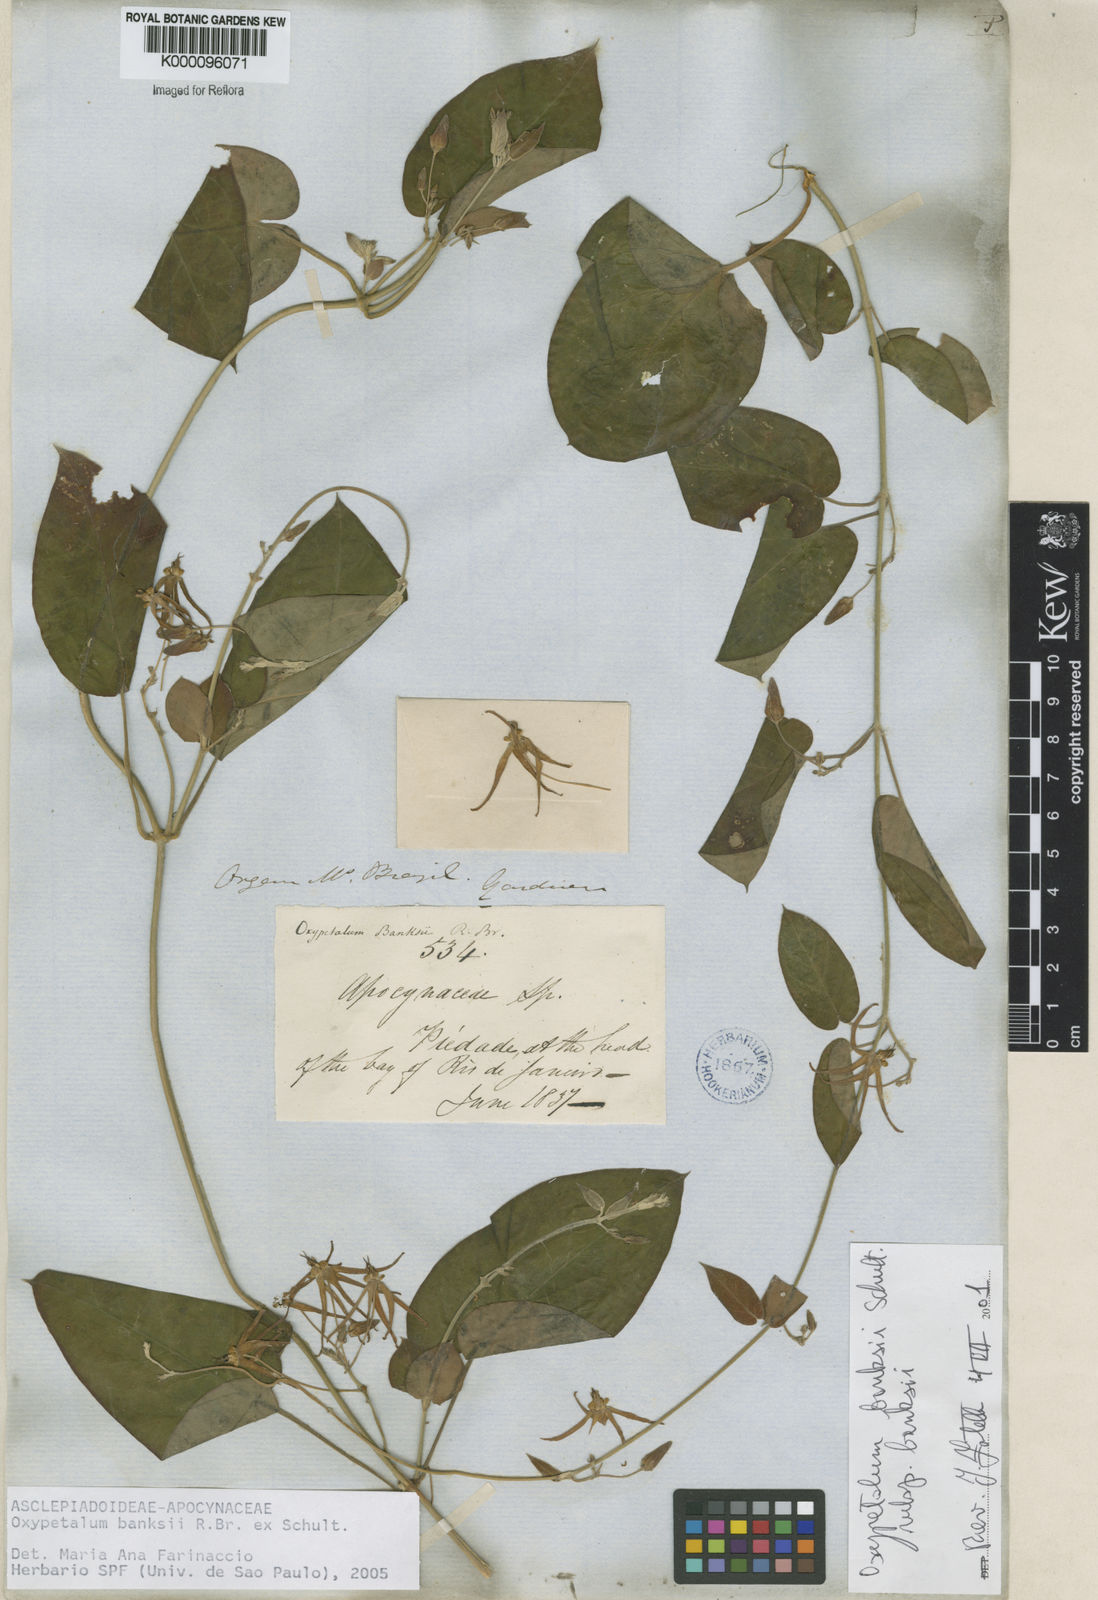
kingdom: Plantae
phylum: Tracheophyta
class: Magnoliopsida
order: Gentianales
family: Apocynaceae
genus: Oxypetalum
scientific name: Oxypetalum banksii
